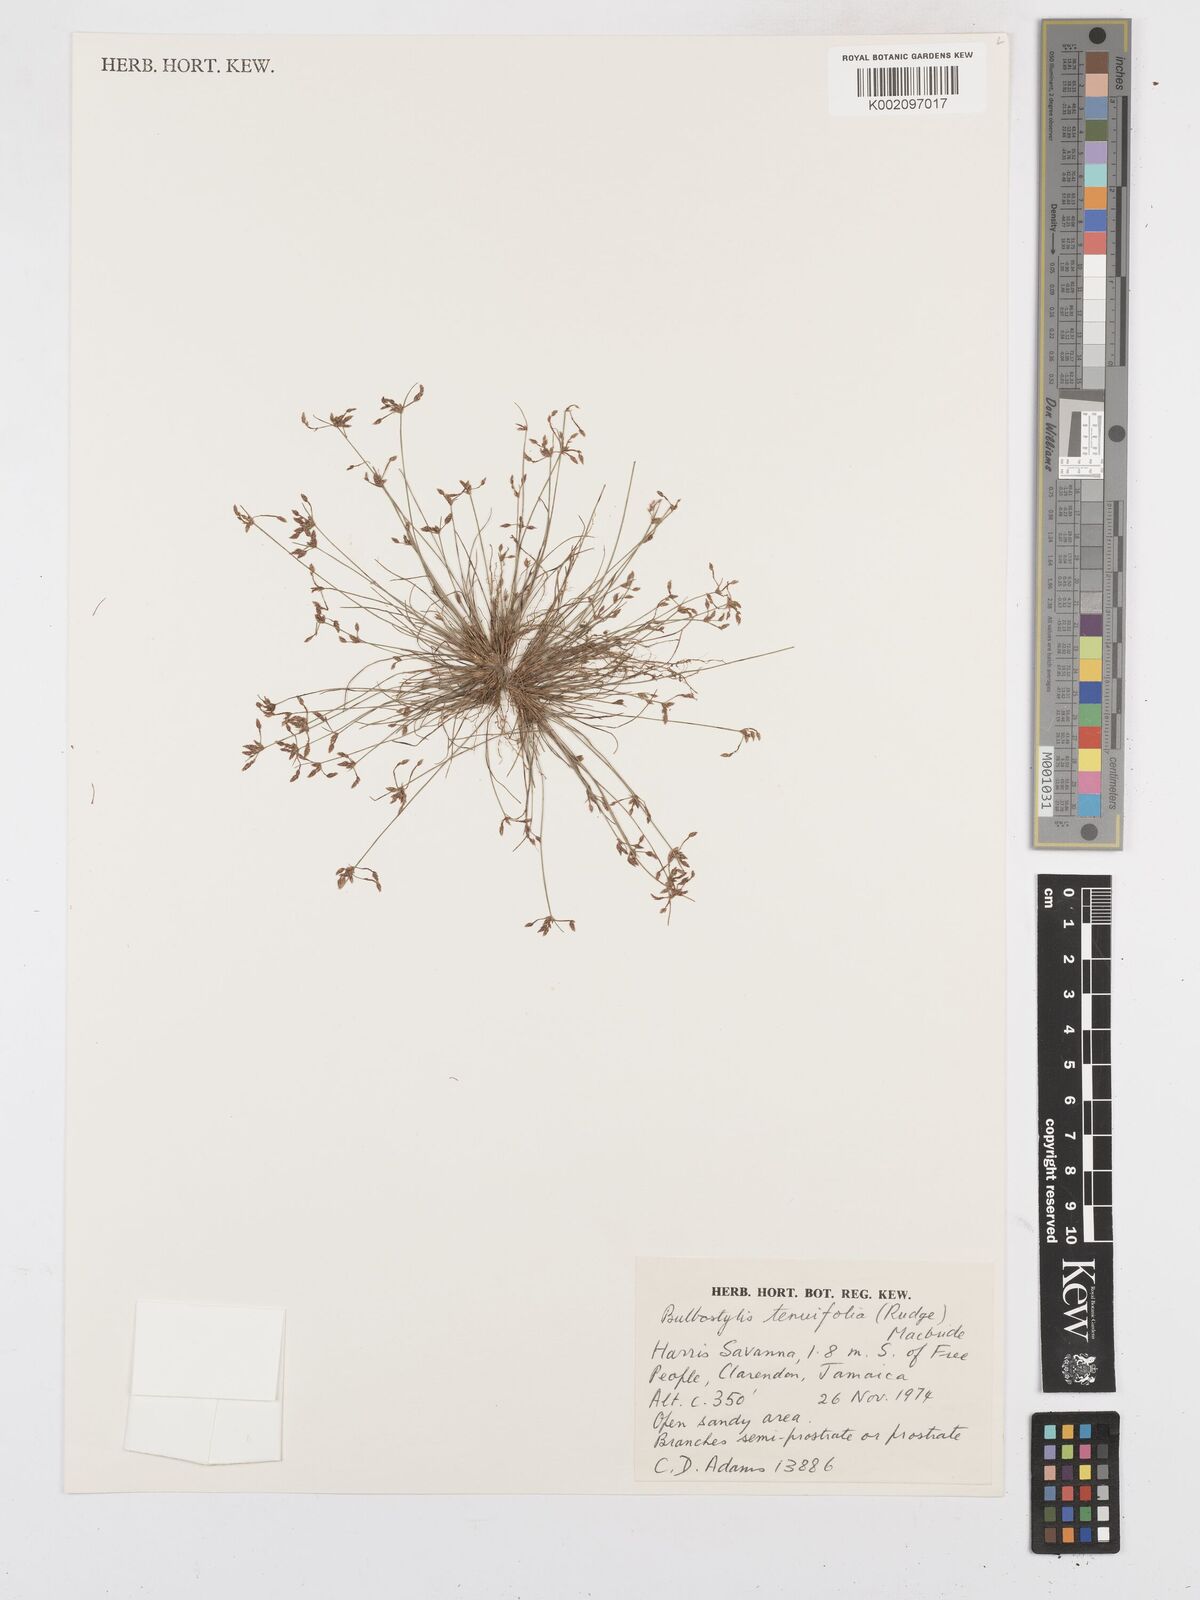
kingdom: Plantae
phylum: Tracheophyta
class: Liliopsida
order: Poales
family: Cyperaceae
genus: Bulbostylis
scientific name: Bulbostylis tenuifolia
